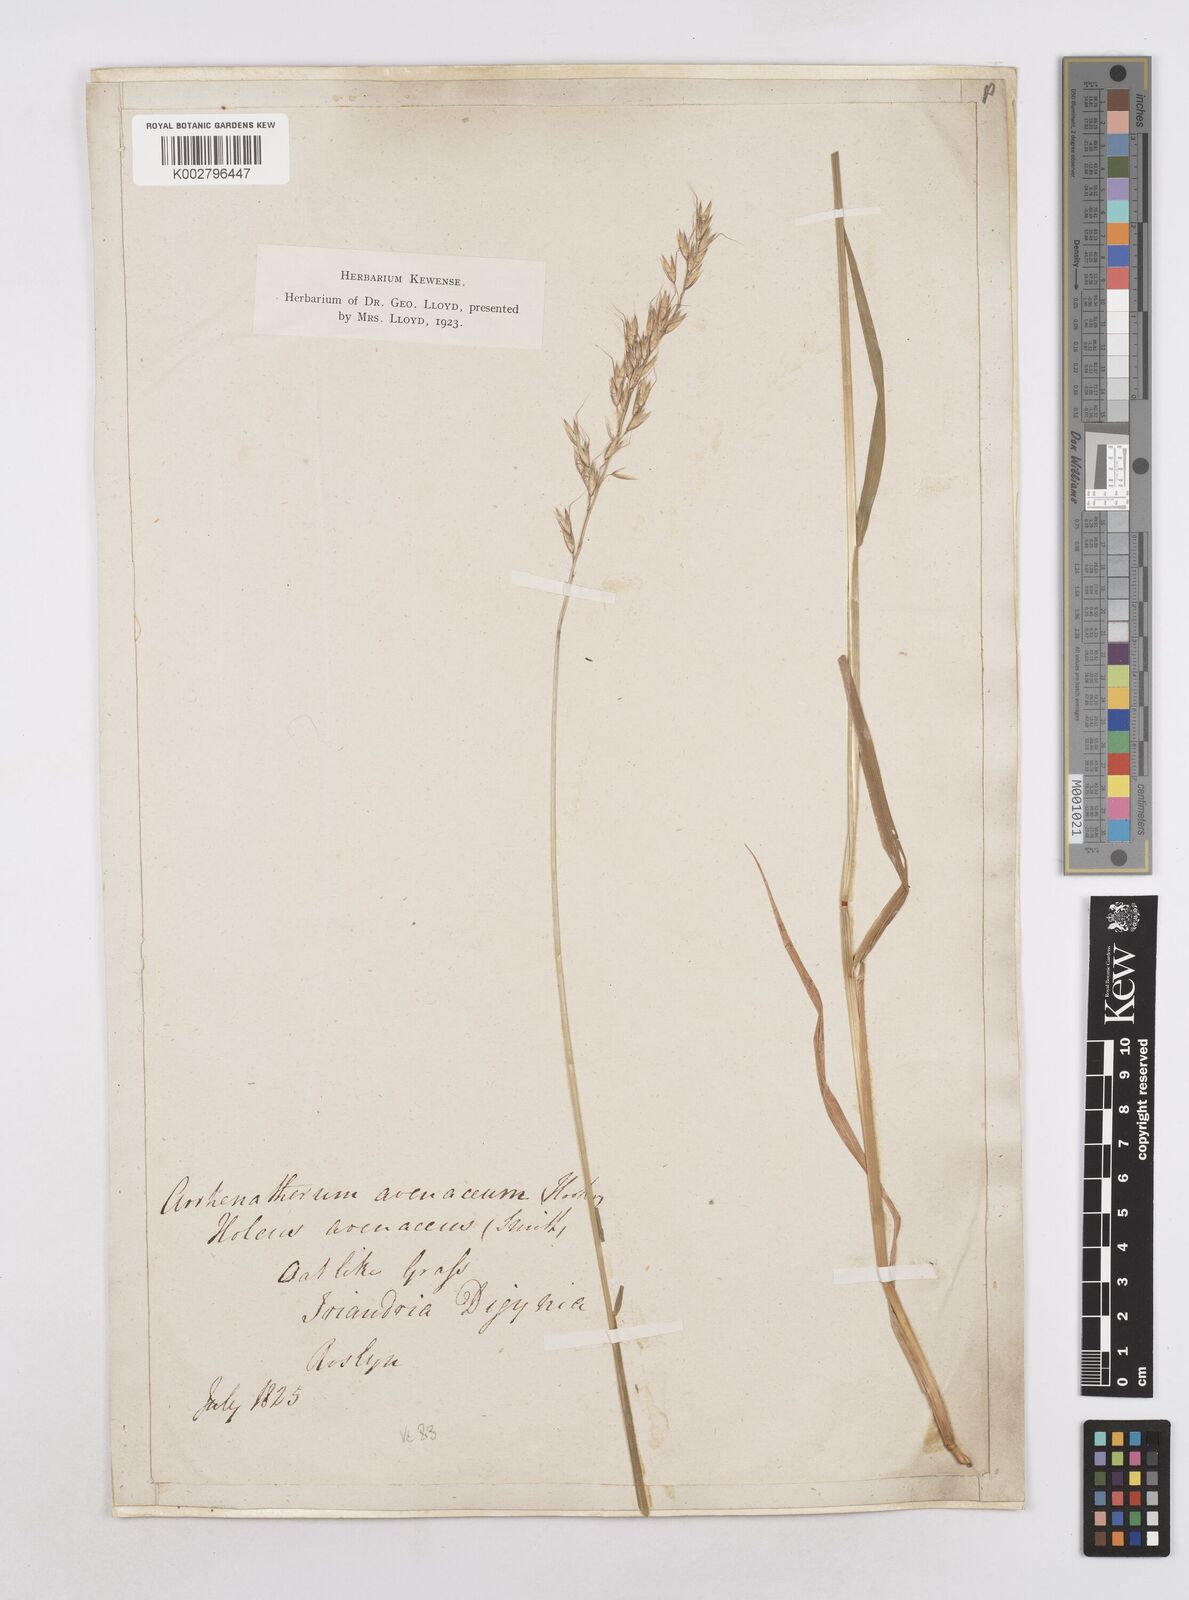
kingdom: Plantae
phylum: Tracheophyta
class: Liliopsida
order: Poales
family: Poaceae
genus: Arrhenatherum
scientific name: Arrhenatherum elatius
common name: Tall oatgrass
